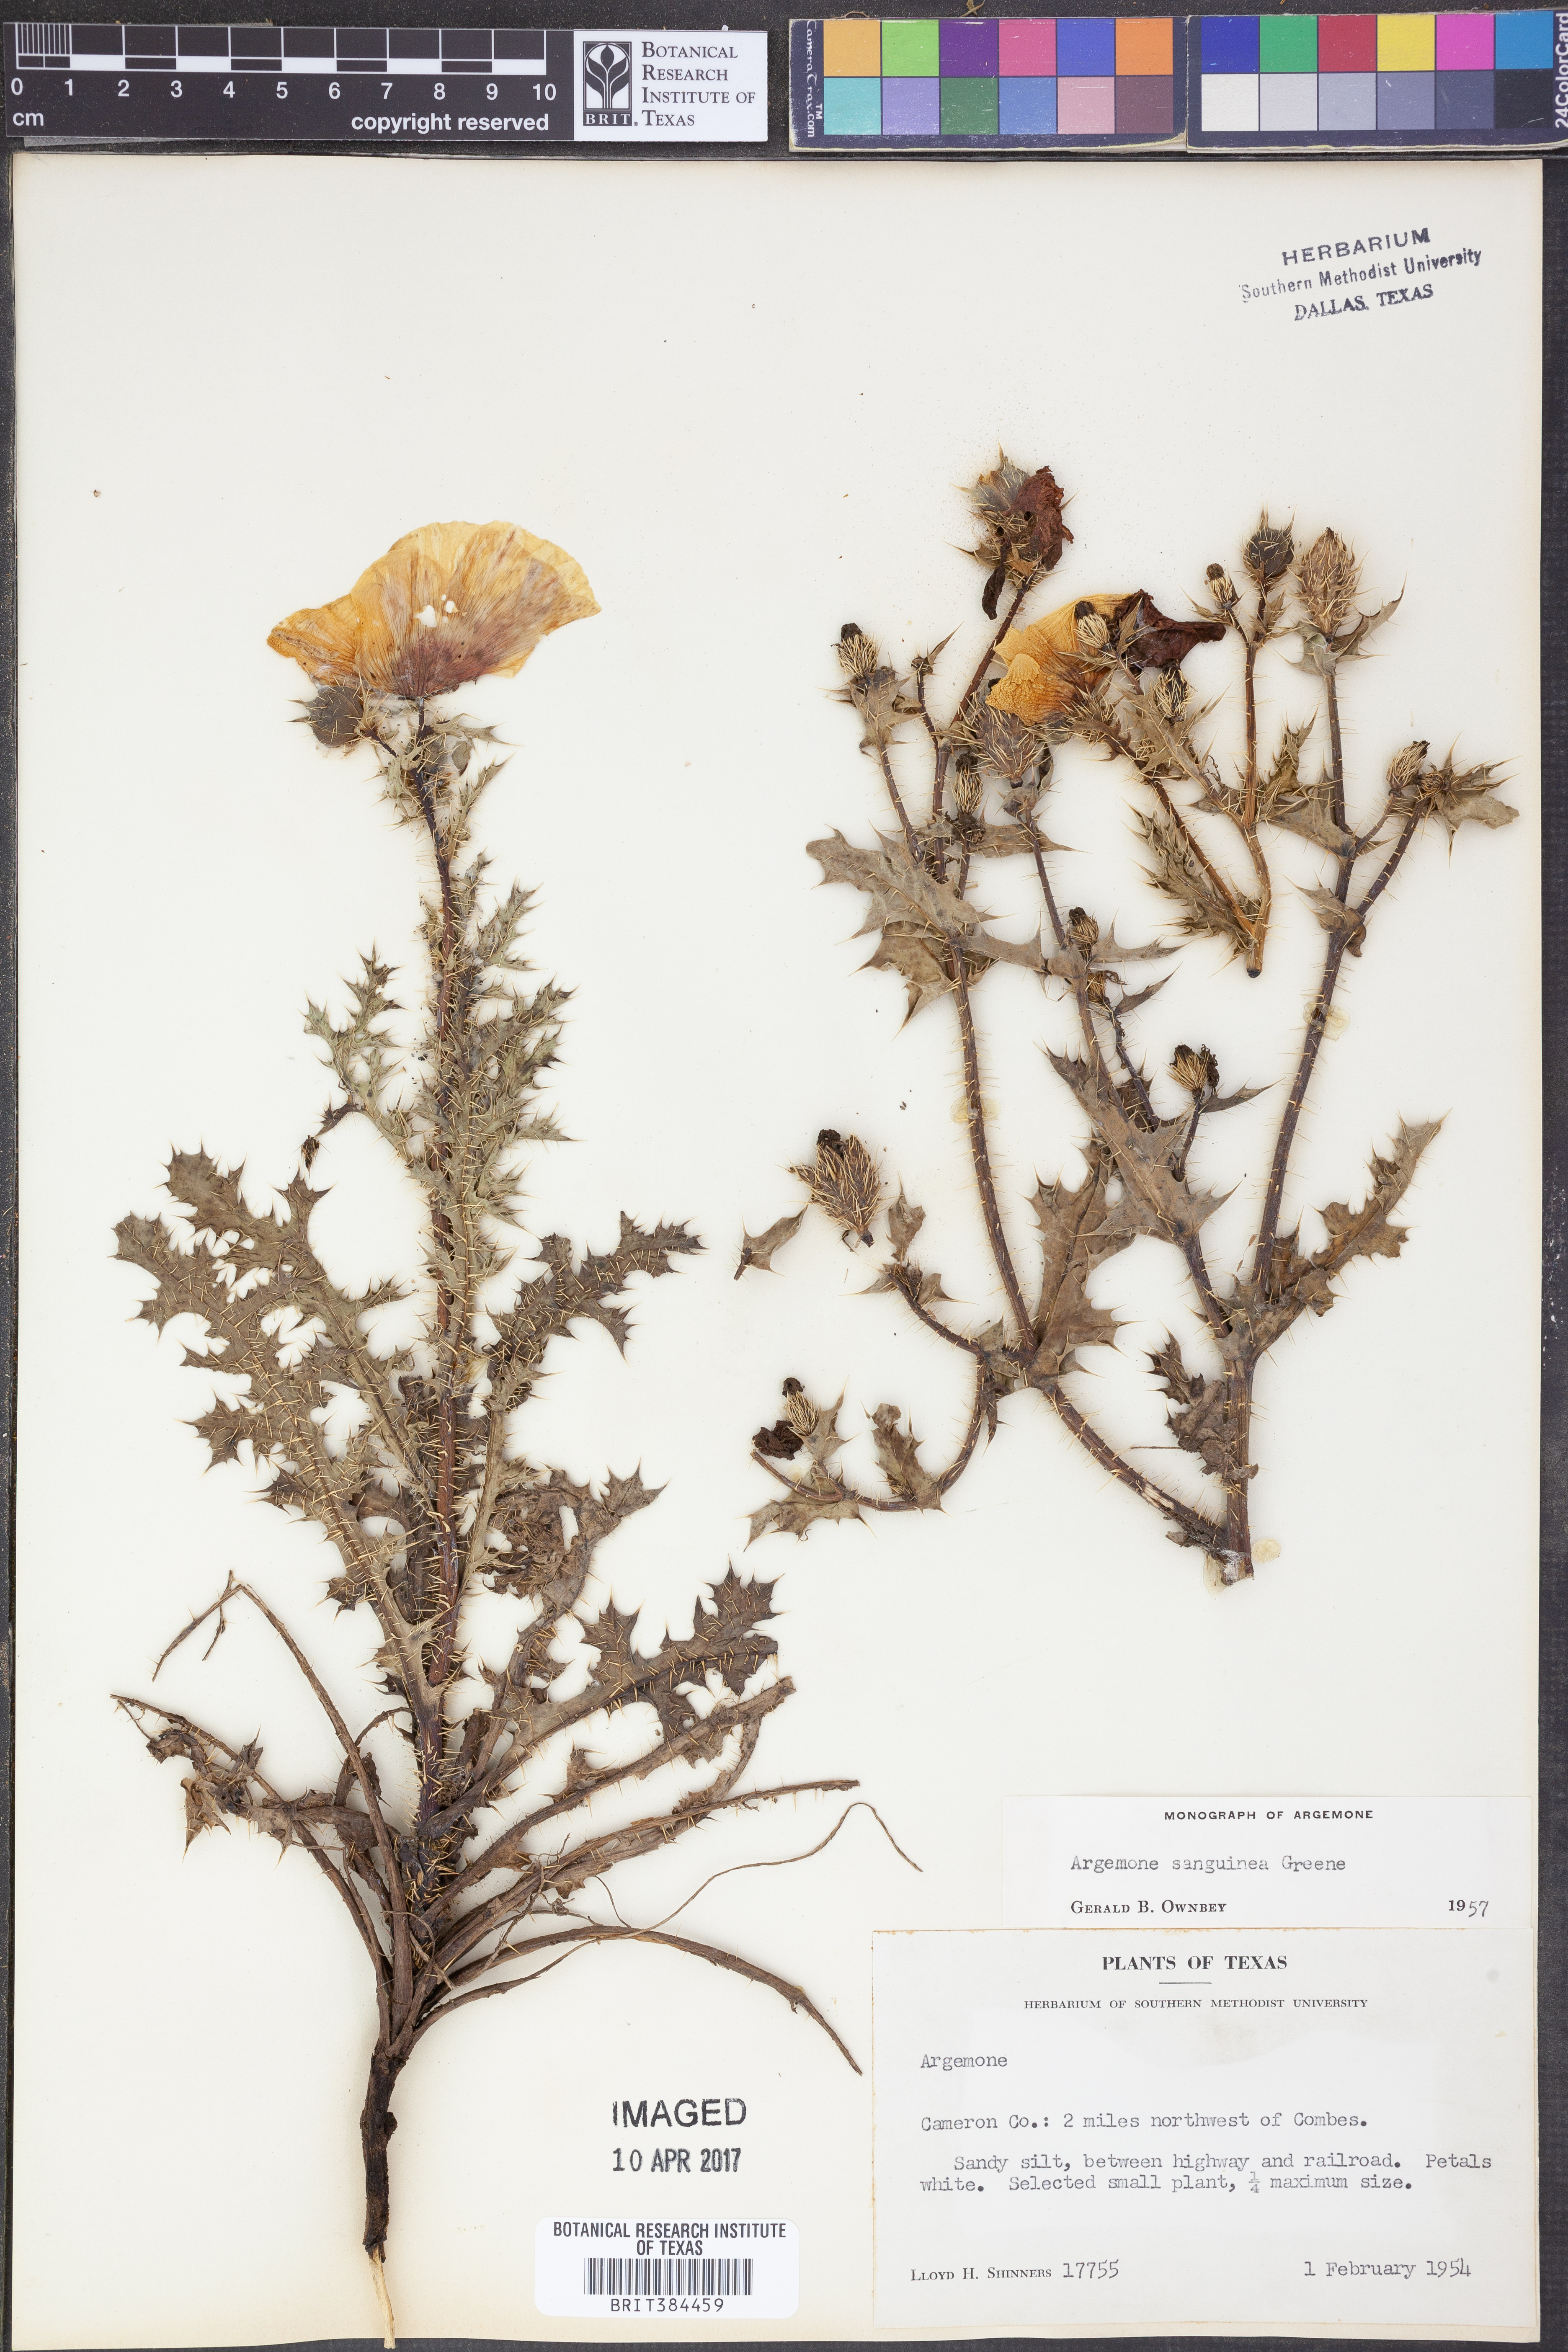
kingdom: Plantae
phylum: Tracheophyta
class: Magnoliopsida
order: Ranunculales
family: Papaveraceae
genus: Argemone
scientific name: Argemone sanguinea
